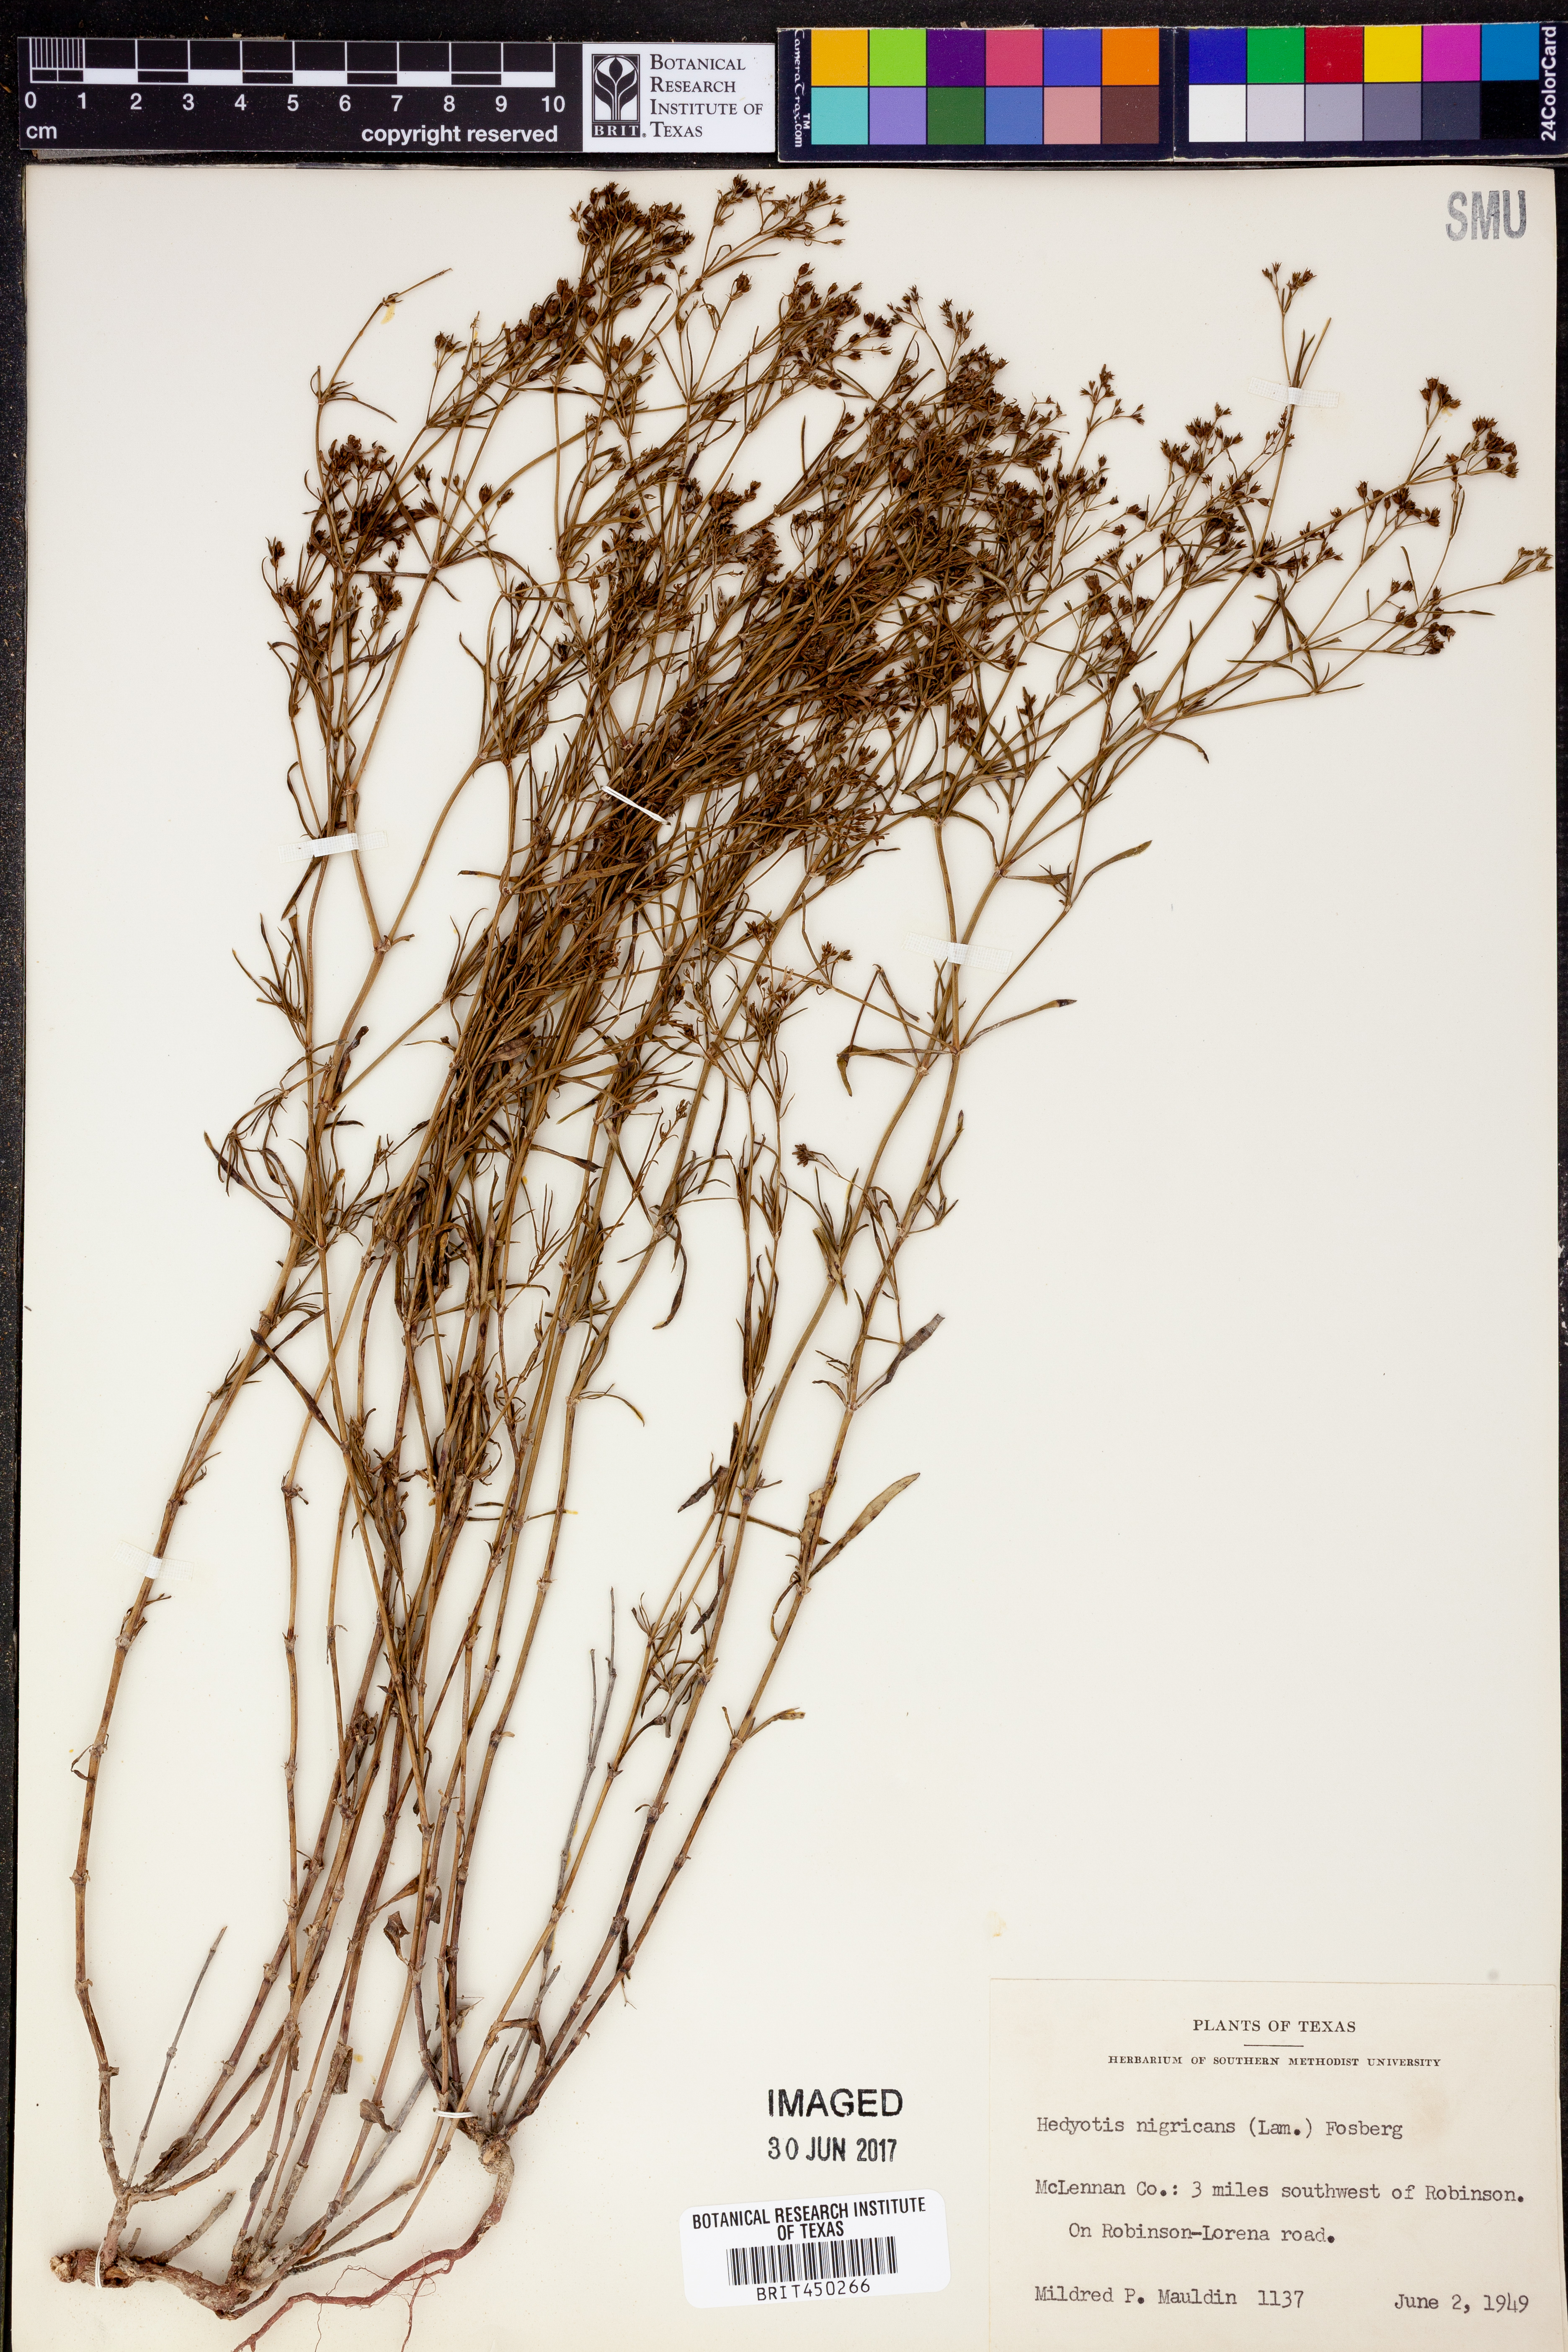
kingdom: Plantae
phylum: Tracheophyta
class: Magnoliopsida
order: Gentianales
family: Rubiaceae
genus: Stenaria
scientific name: Stenaria nigricans
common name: Diamondflowers
